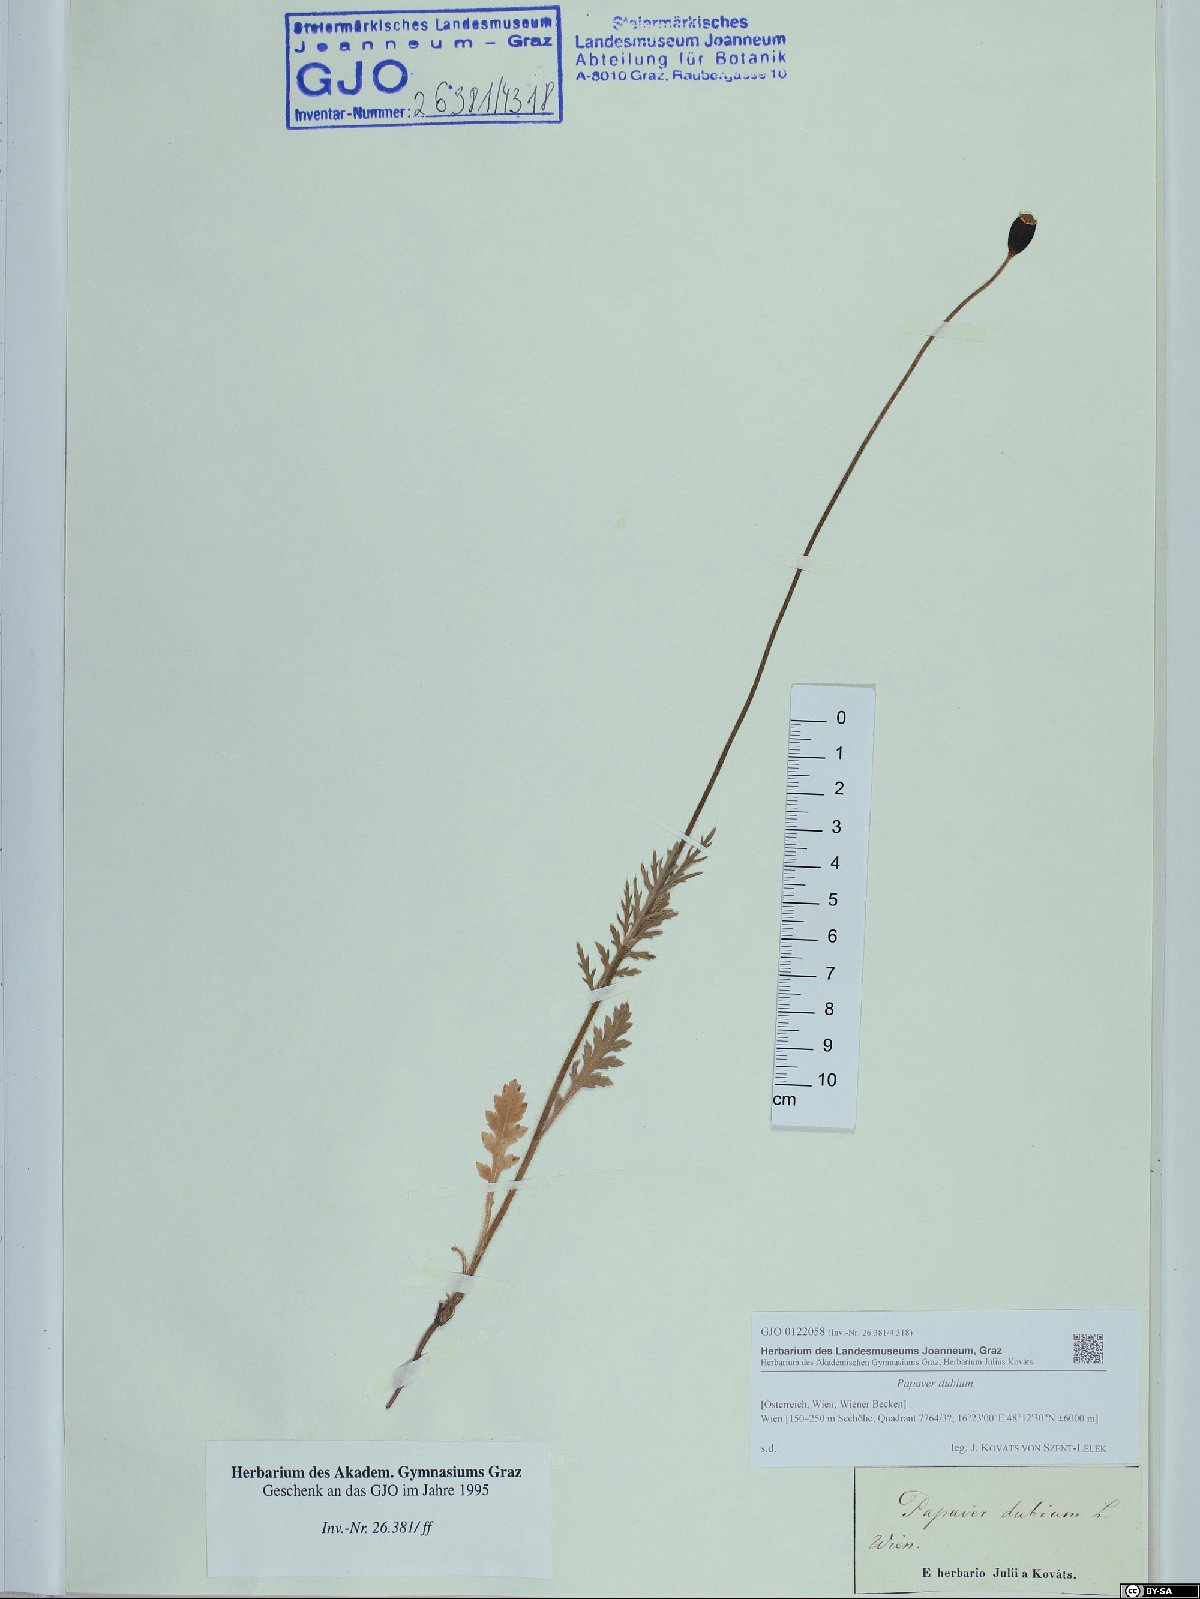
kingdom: Plantae
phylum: Tracheophyta
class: Magnoliopsida
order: Ranunculales
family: Papaveraceae
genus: Papaver
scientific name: Papaver dubium
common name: Long-headed poppy
